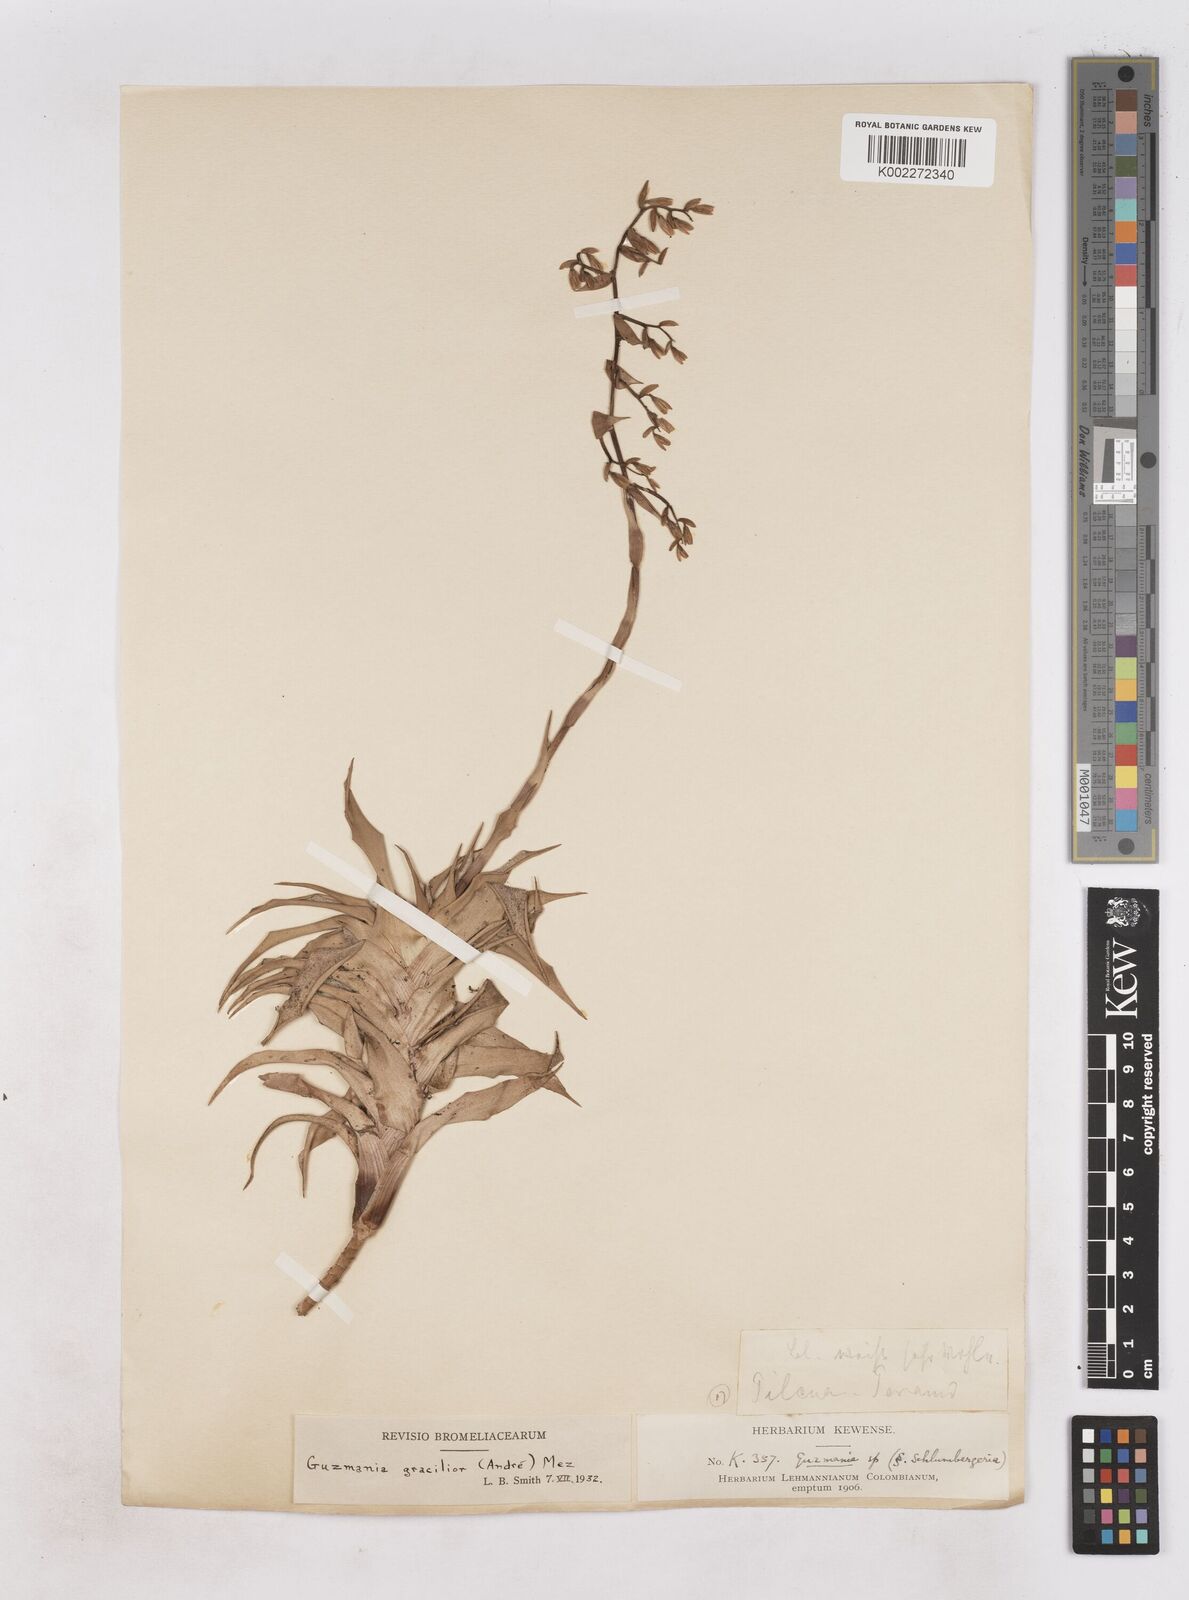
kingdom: Plantae
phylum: Tracheophyta
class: Liliopsida
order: Poales
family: Bromeliaceae
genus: Guzmania
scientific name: Guzmania gracilior
